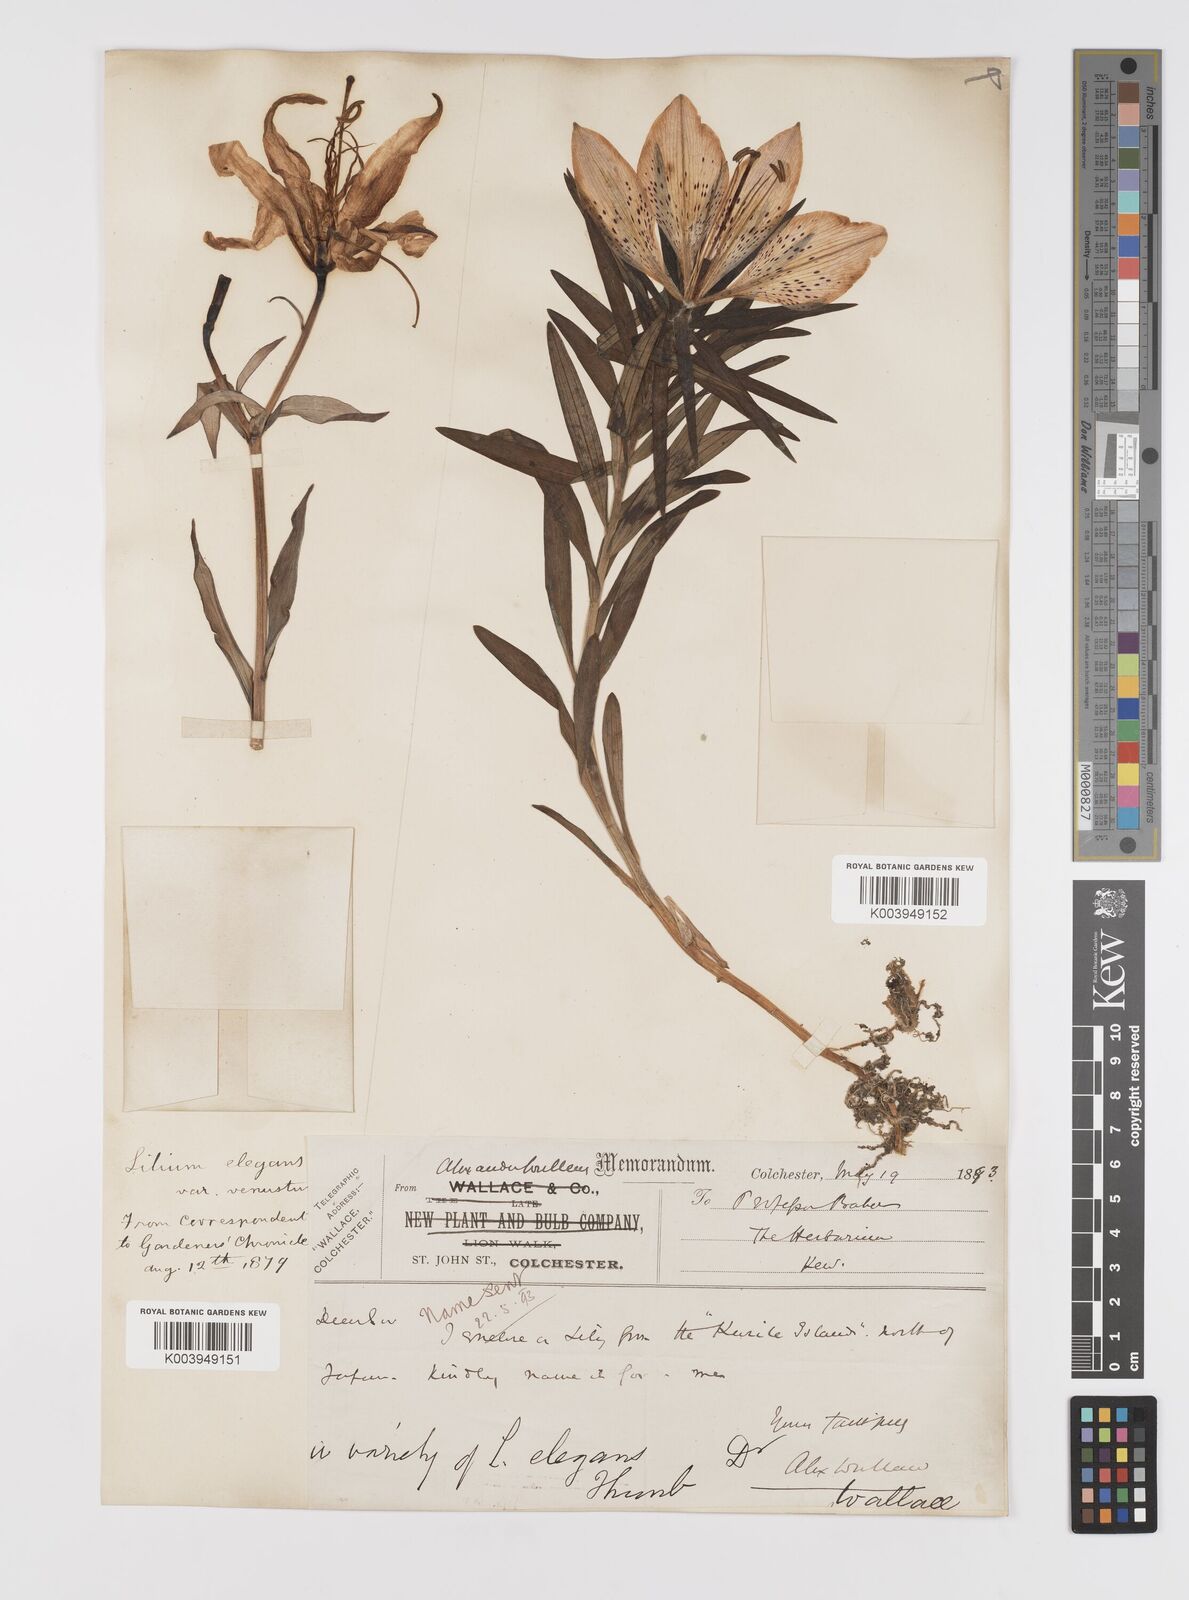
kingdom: Plantae
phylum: Tracheophyta
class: Liliopsida
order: Liliales
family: Liliaceae
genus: Lilium
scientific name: Lilium pensylvanicum
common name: Candlestick lily
